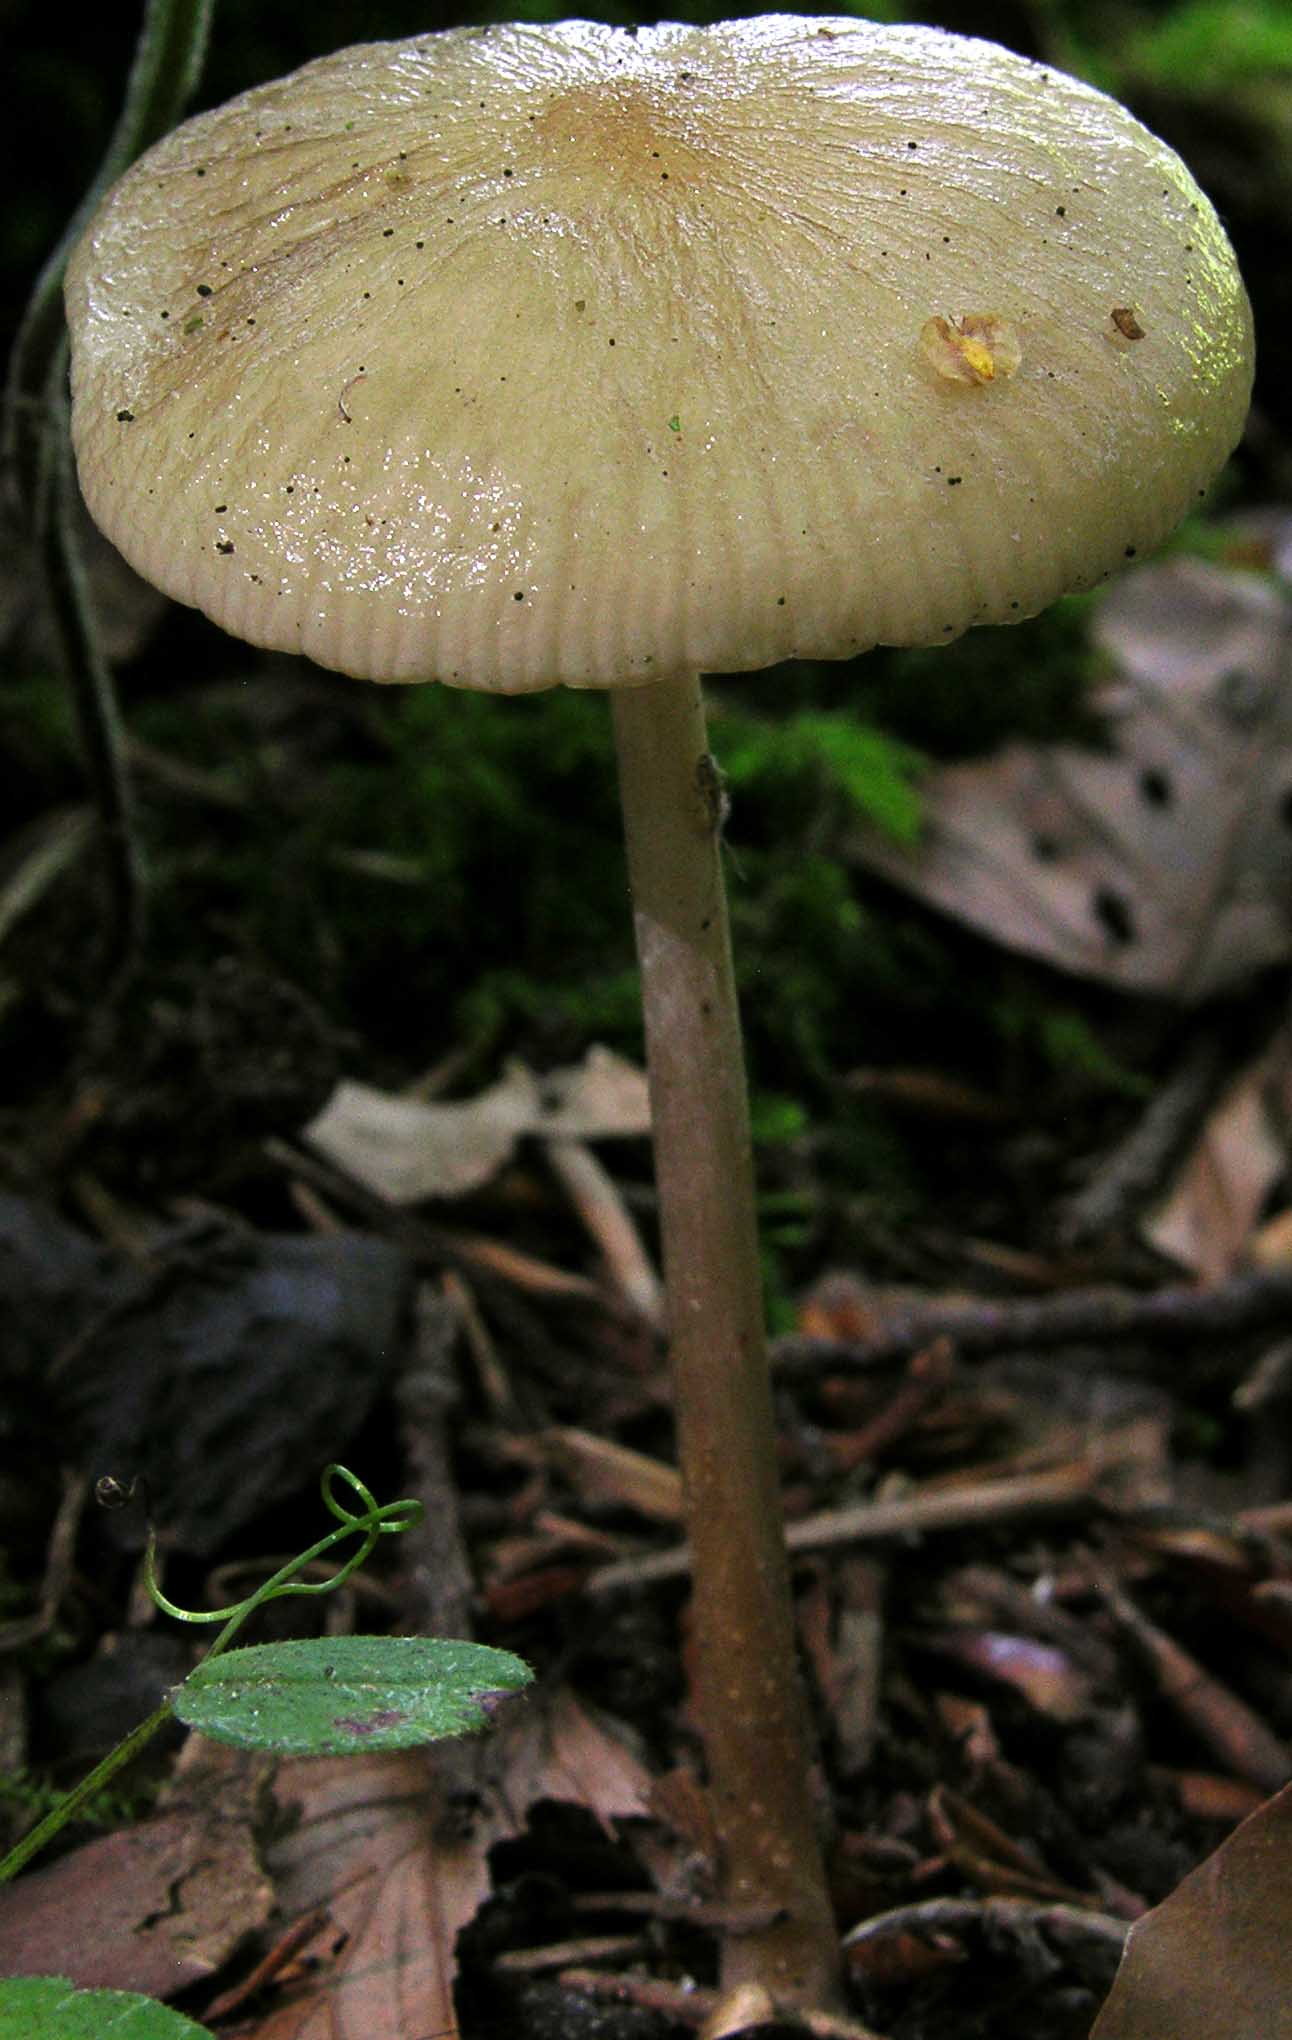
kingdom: Fungi
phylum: Basidiomycota
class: Agaricomycetes
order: Agaricales
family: Physalacriaceae
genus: Hymenopellis
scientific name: Hymenopellis radicata
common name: almindelig pælerodshat
